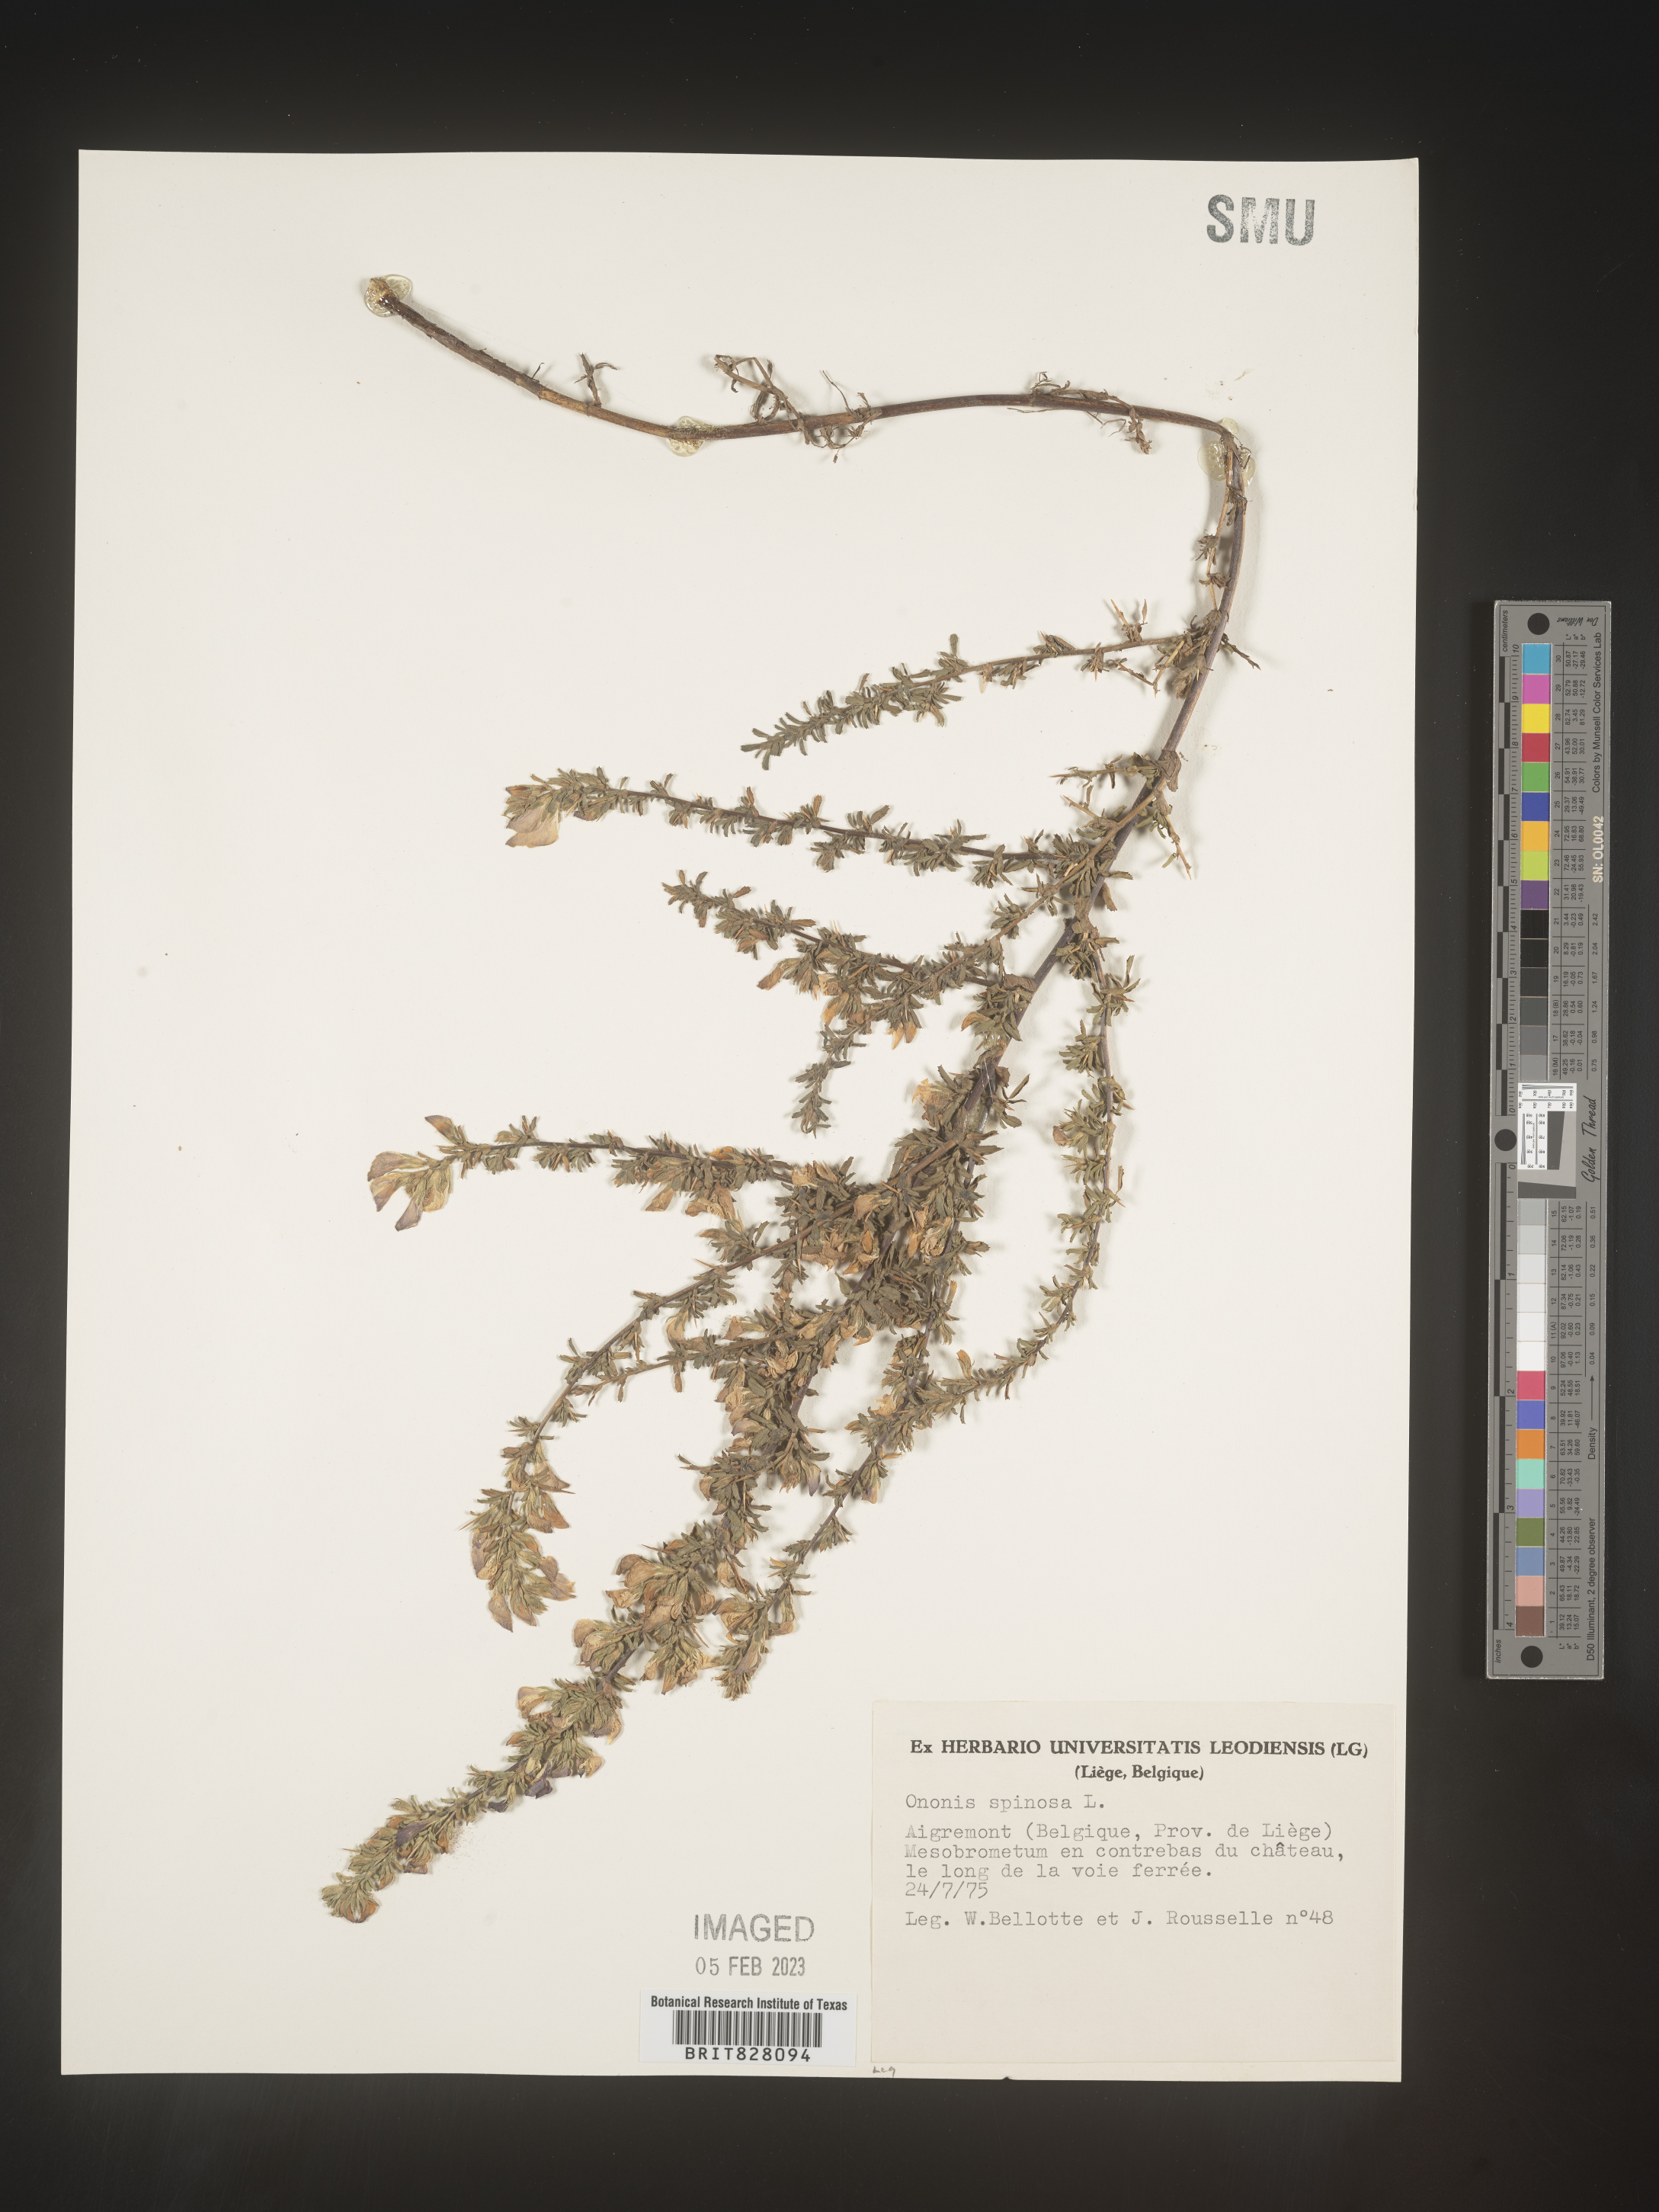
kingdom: Plantae
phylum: Tracheophyta
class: Magnoliopsida
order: Fabales
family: Fabaceae
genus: Ononis
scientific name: Ononis
